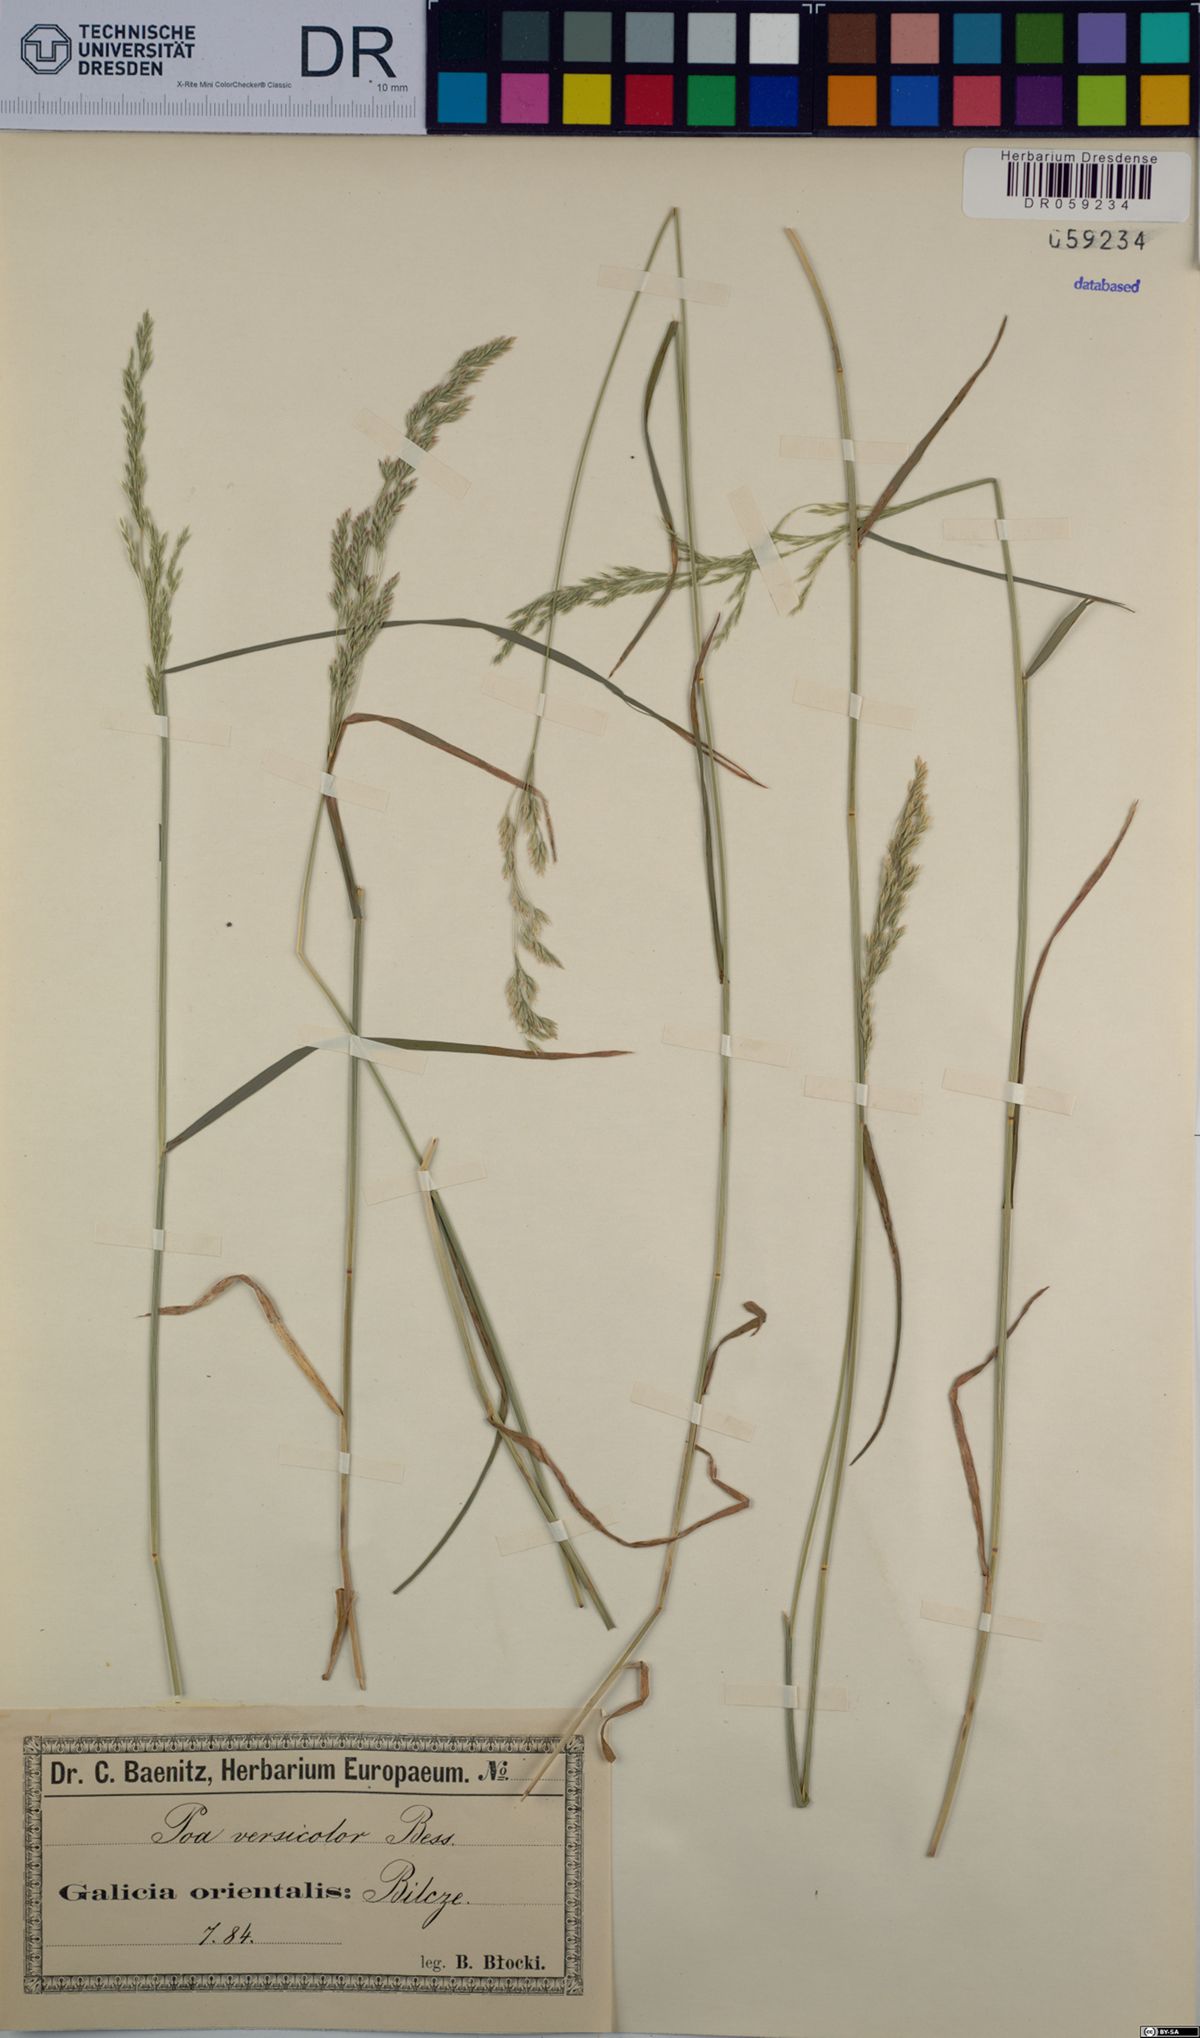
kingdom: Plantae
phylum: Tracheophyta
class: Liliopsida
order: Poales
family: Poaceae
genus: Poa
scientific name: Poa versicolor
